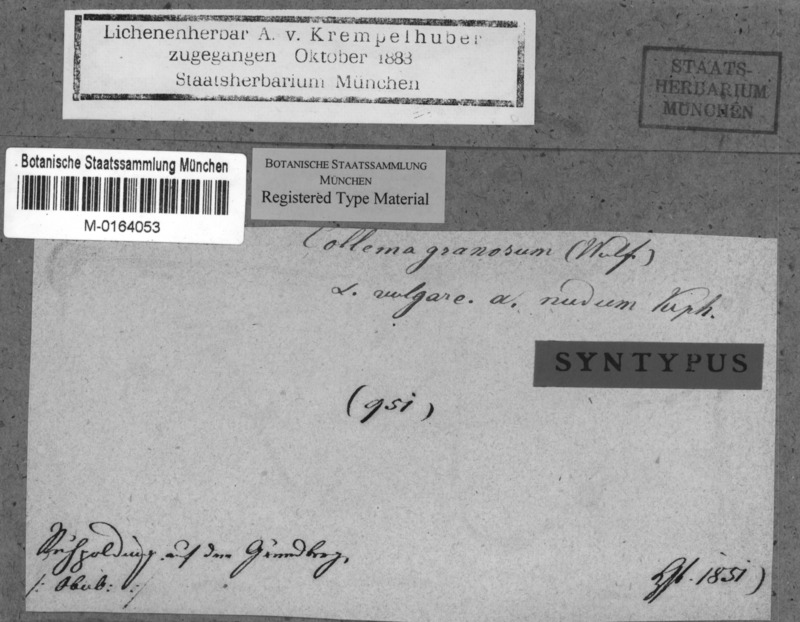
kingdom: Fungi
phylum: Ascomycota
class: Lecanoromycetes
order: Peltigerales
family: Collemataceae
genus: Lathagrium
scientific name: Lathagrium auriforme
